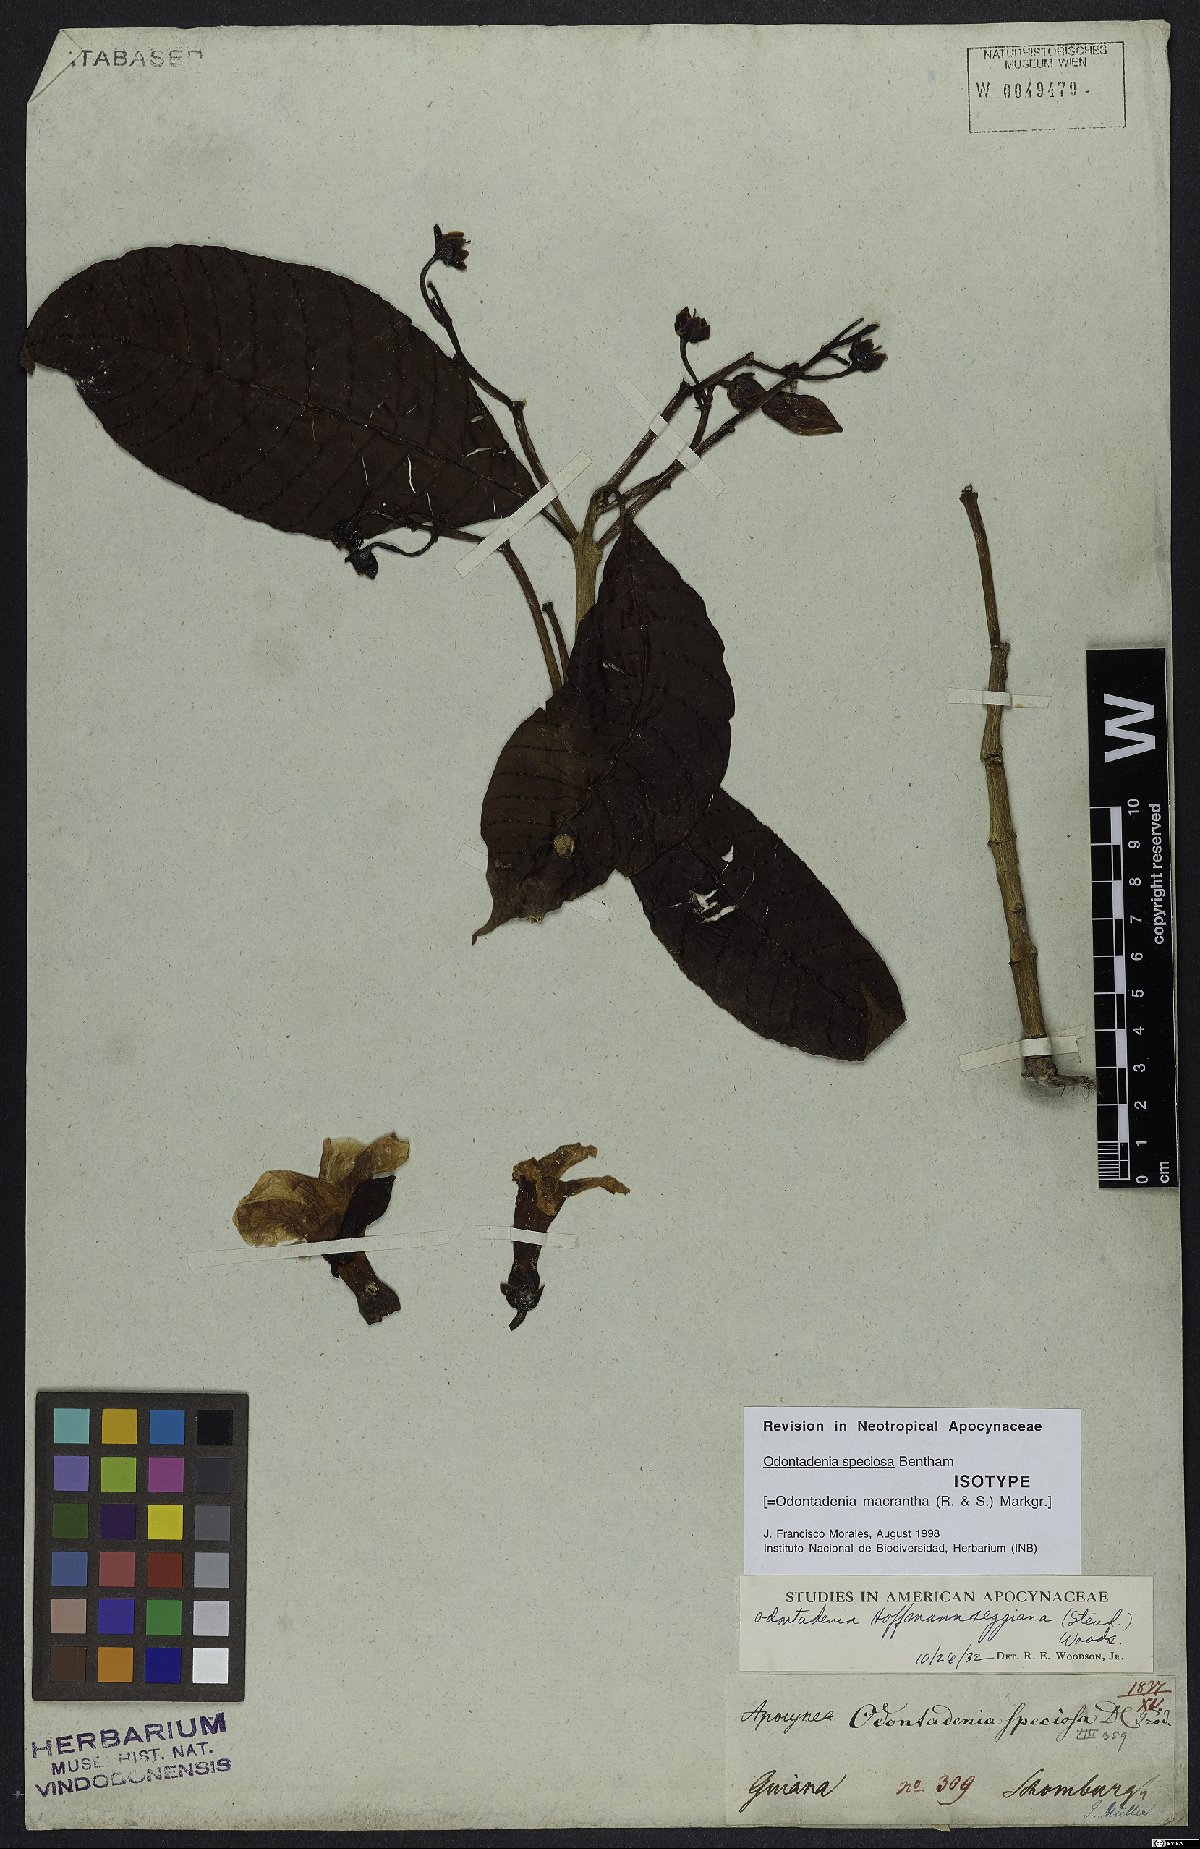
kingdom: Plantae
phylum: Tracheophyta
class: Magnoliopsida
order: Gentianales
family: Apocynaceae
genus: Odontadenia
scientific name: Odontadenia semidigyna
